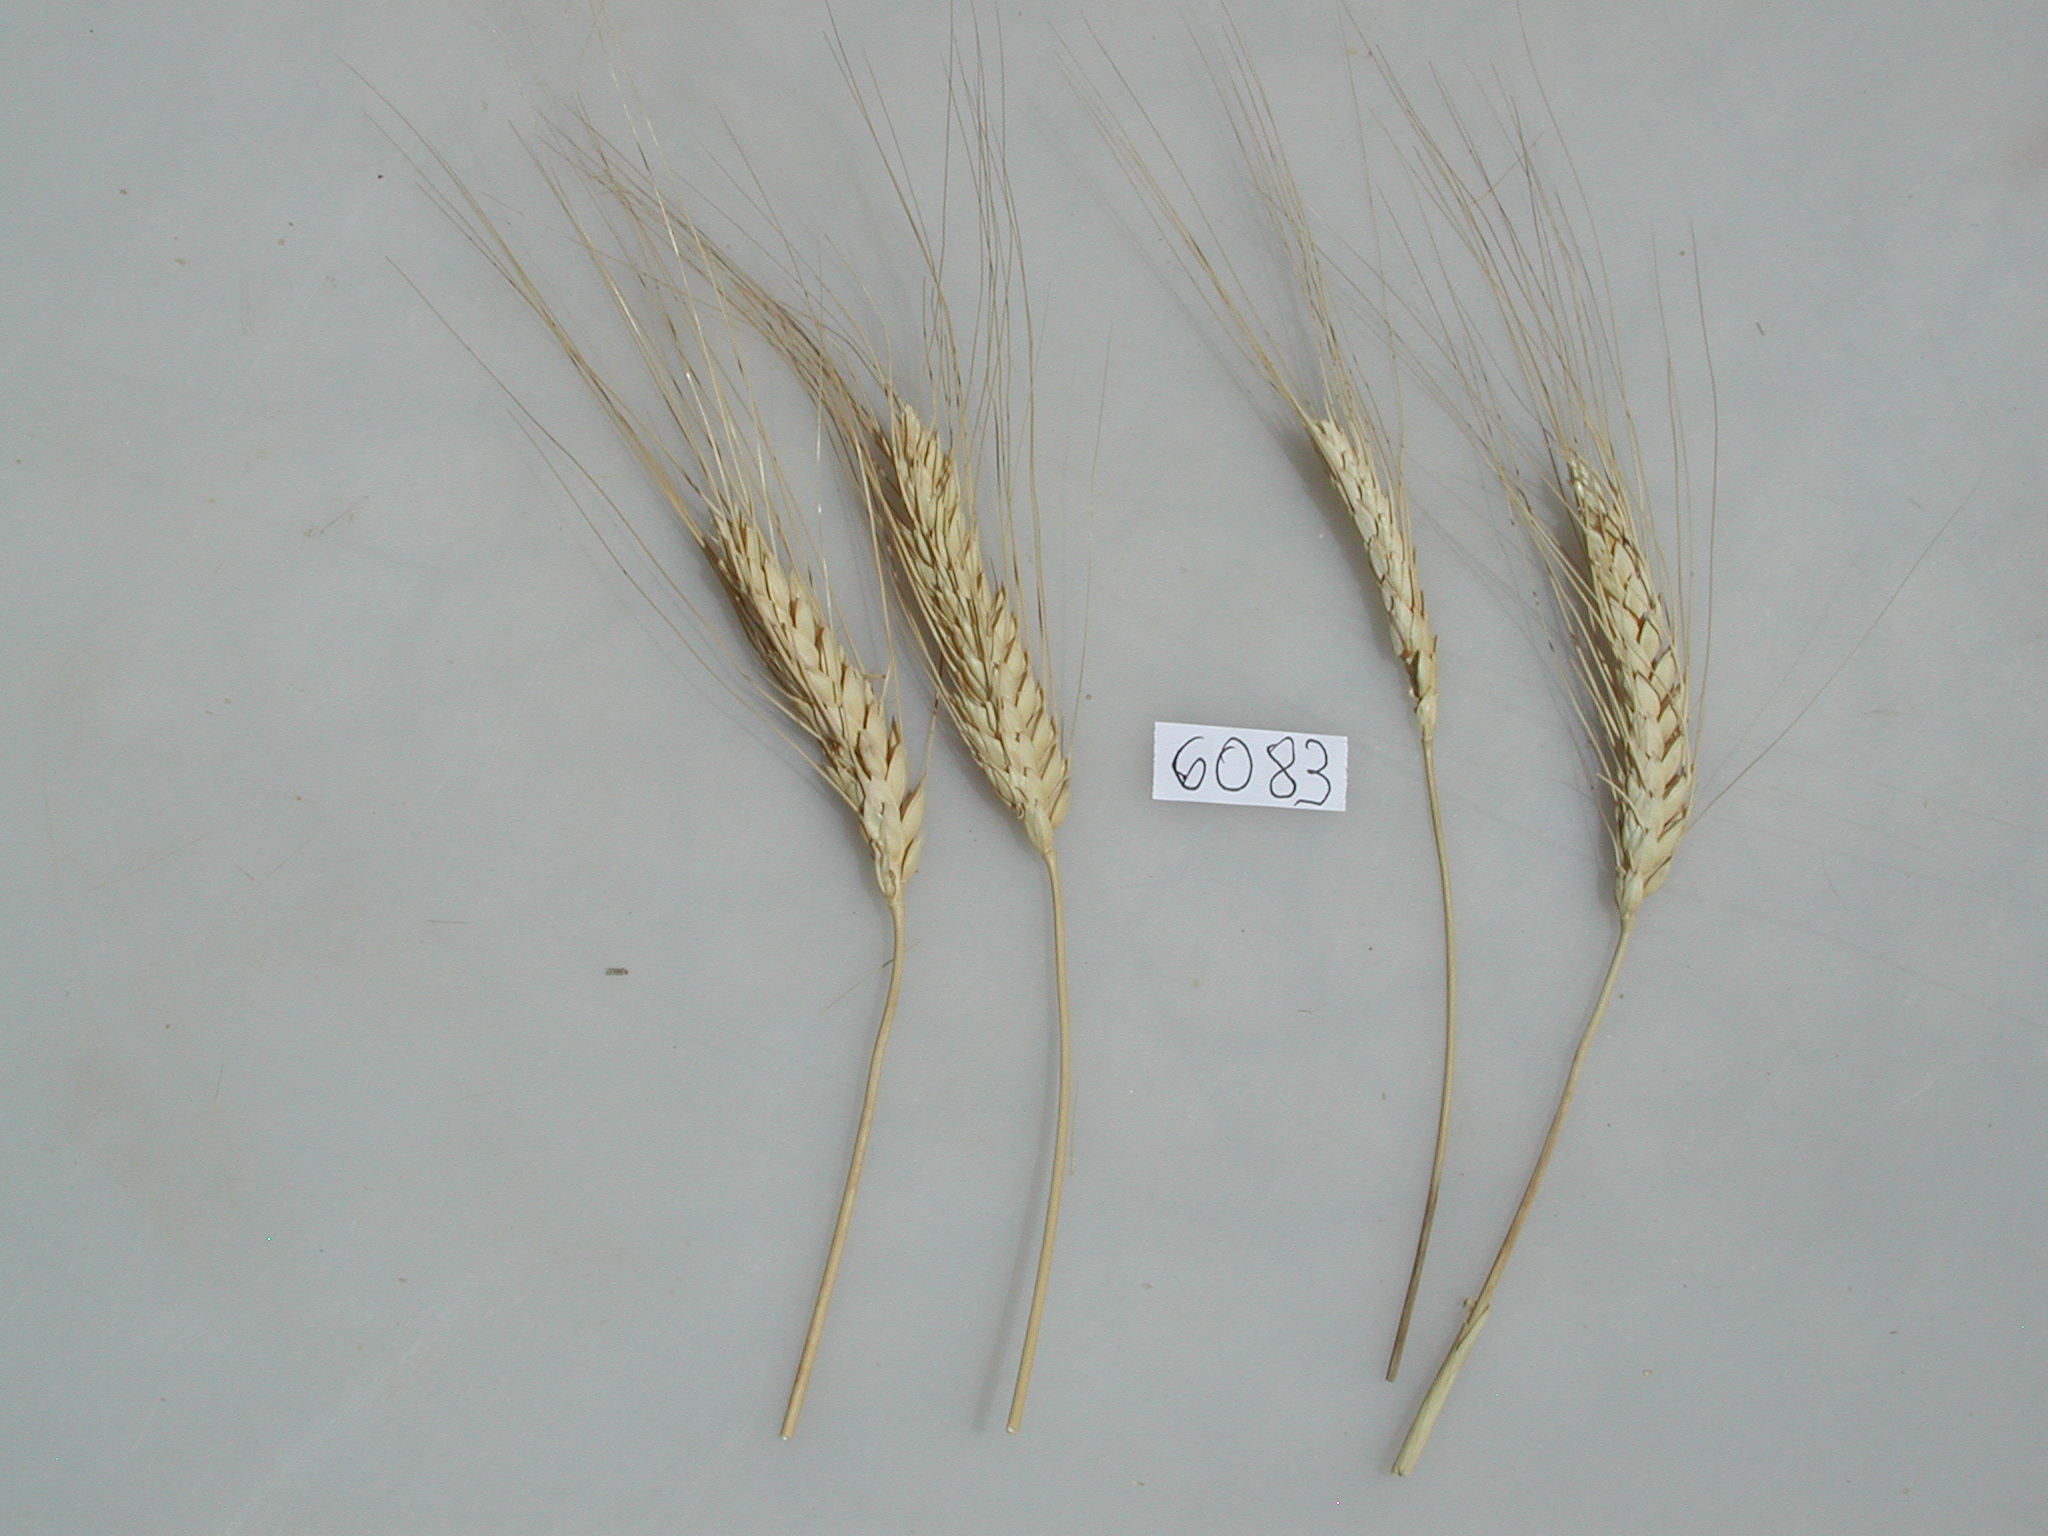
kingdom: Plantae
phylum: Tracheophyta
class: Liliopsida
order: Poales
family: Poaceae
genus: Triticum
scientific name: Triticum turgidum
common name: Wheat
